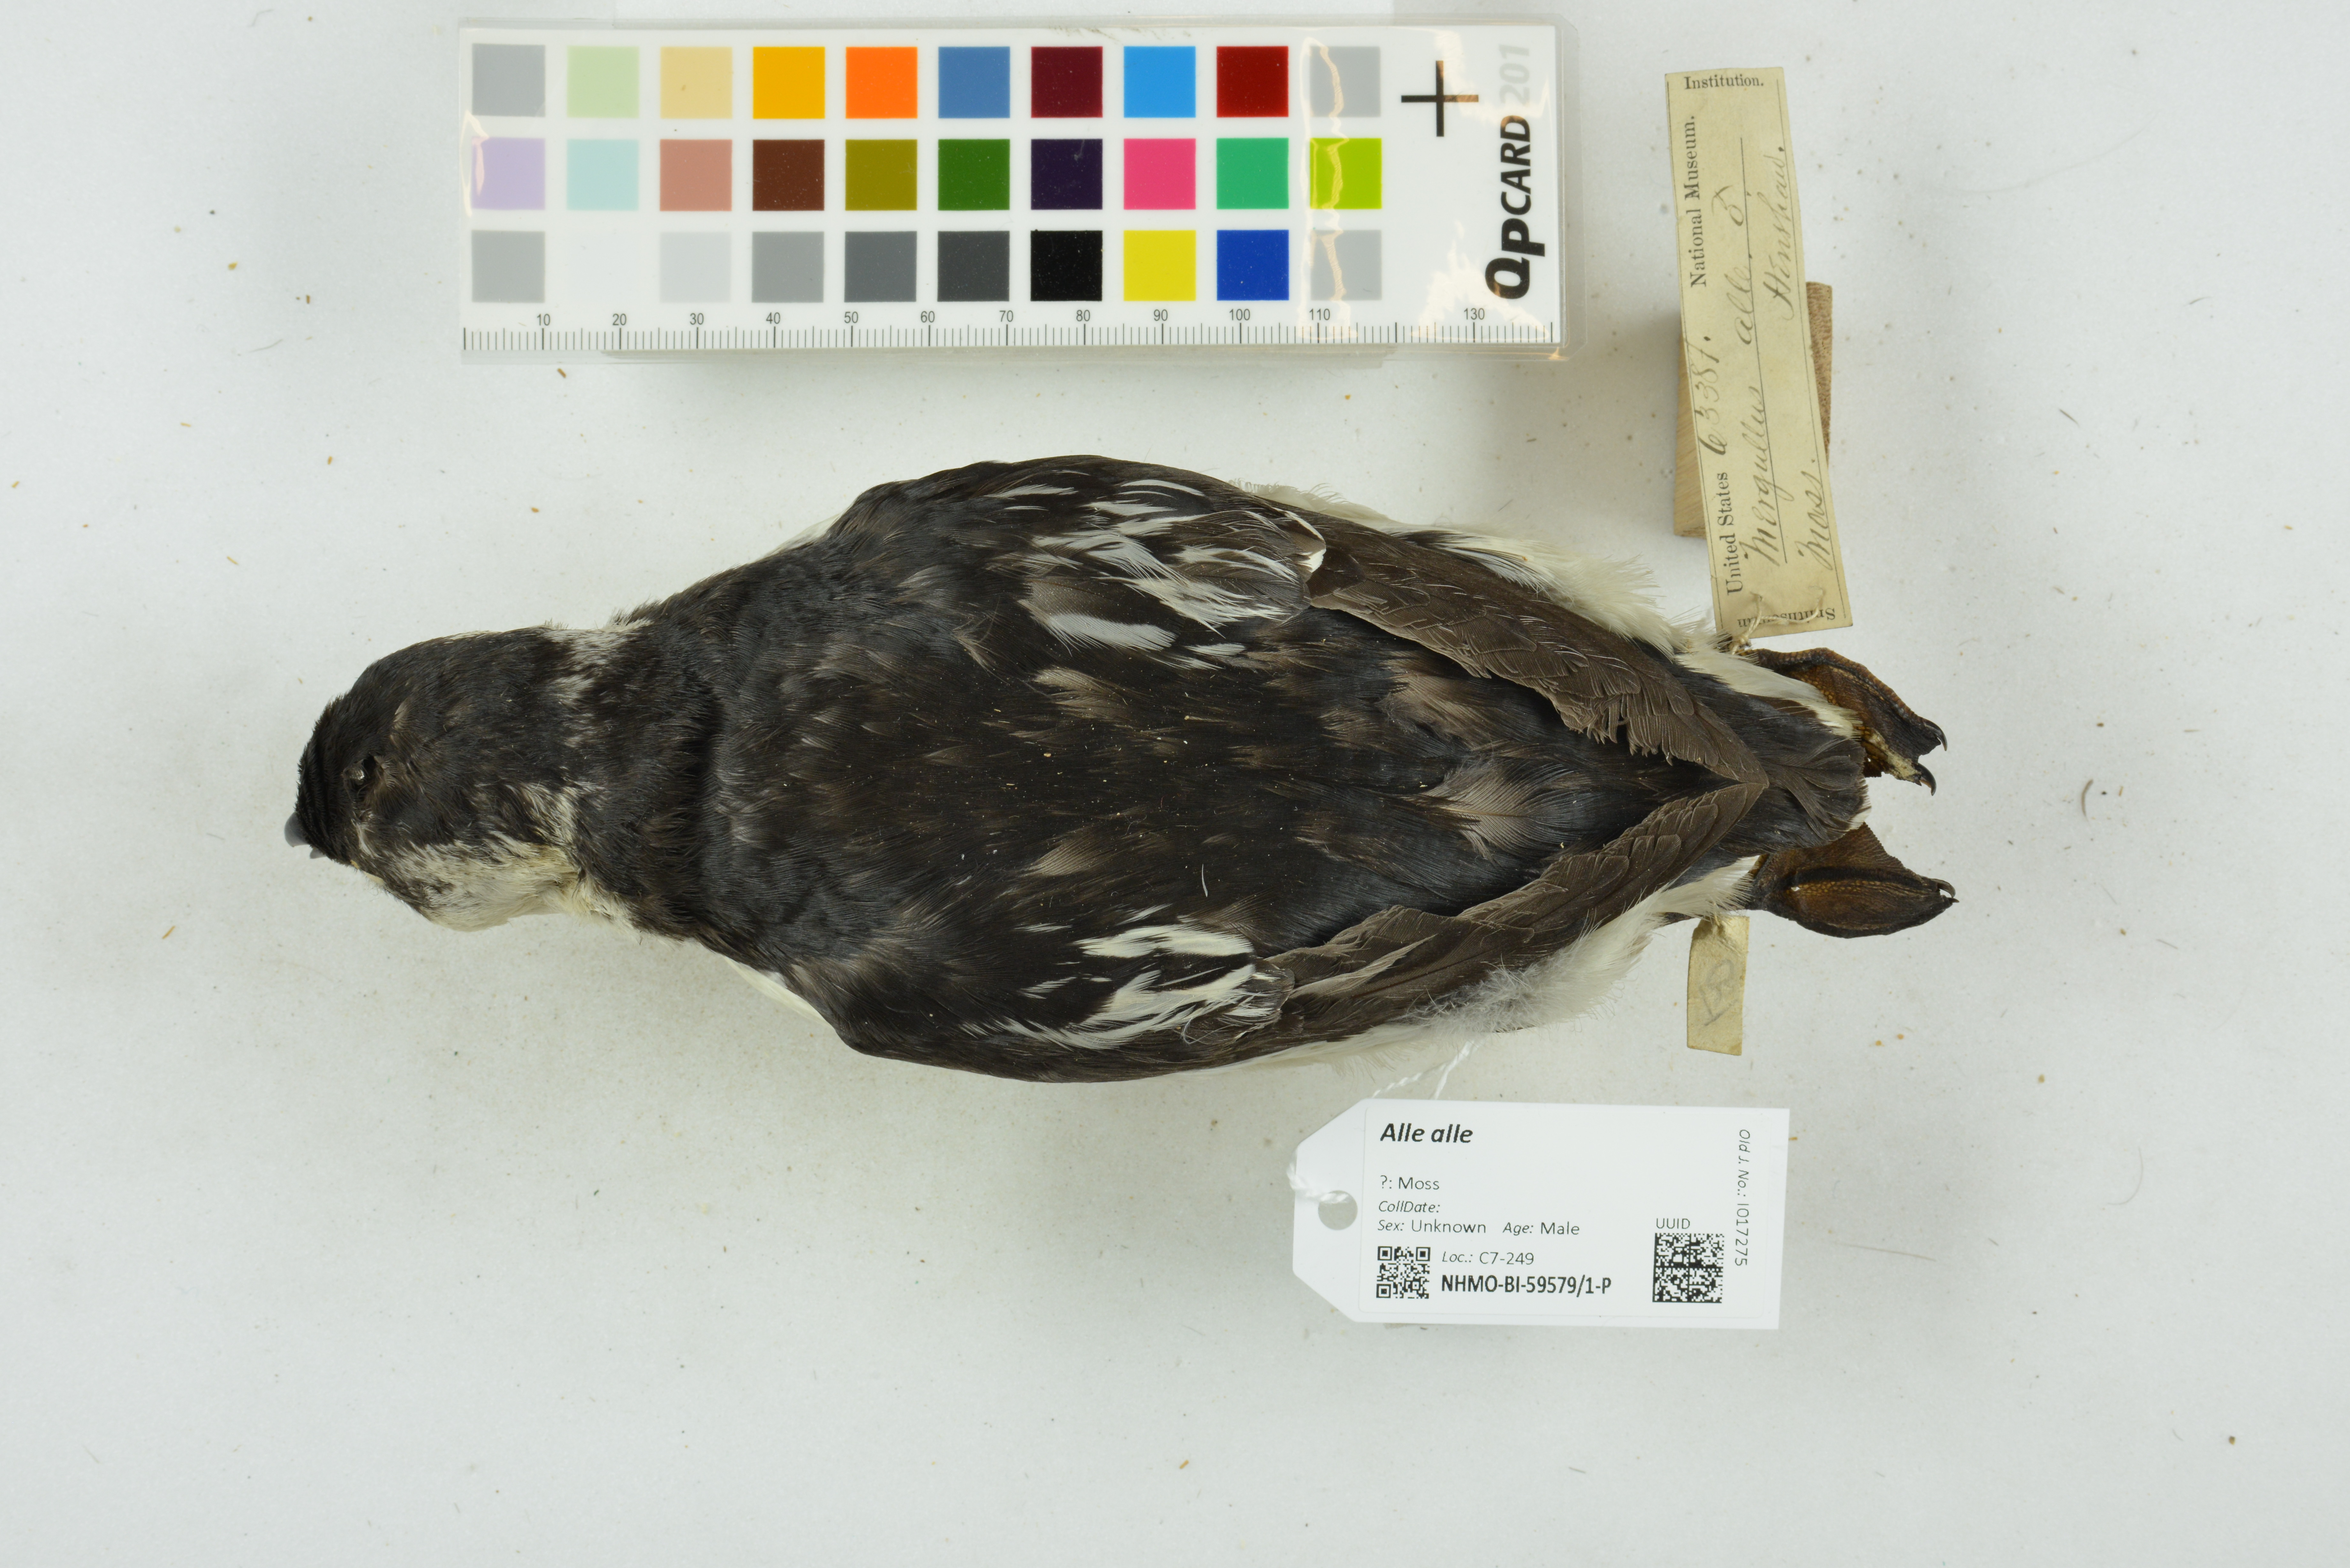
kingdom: Animalia
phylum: Chordata
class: Aves
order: Charadriiformes
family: Alcidae
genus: Alle
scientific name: Alle alle
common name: Little auk
